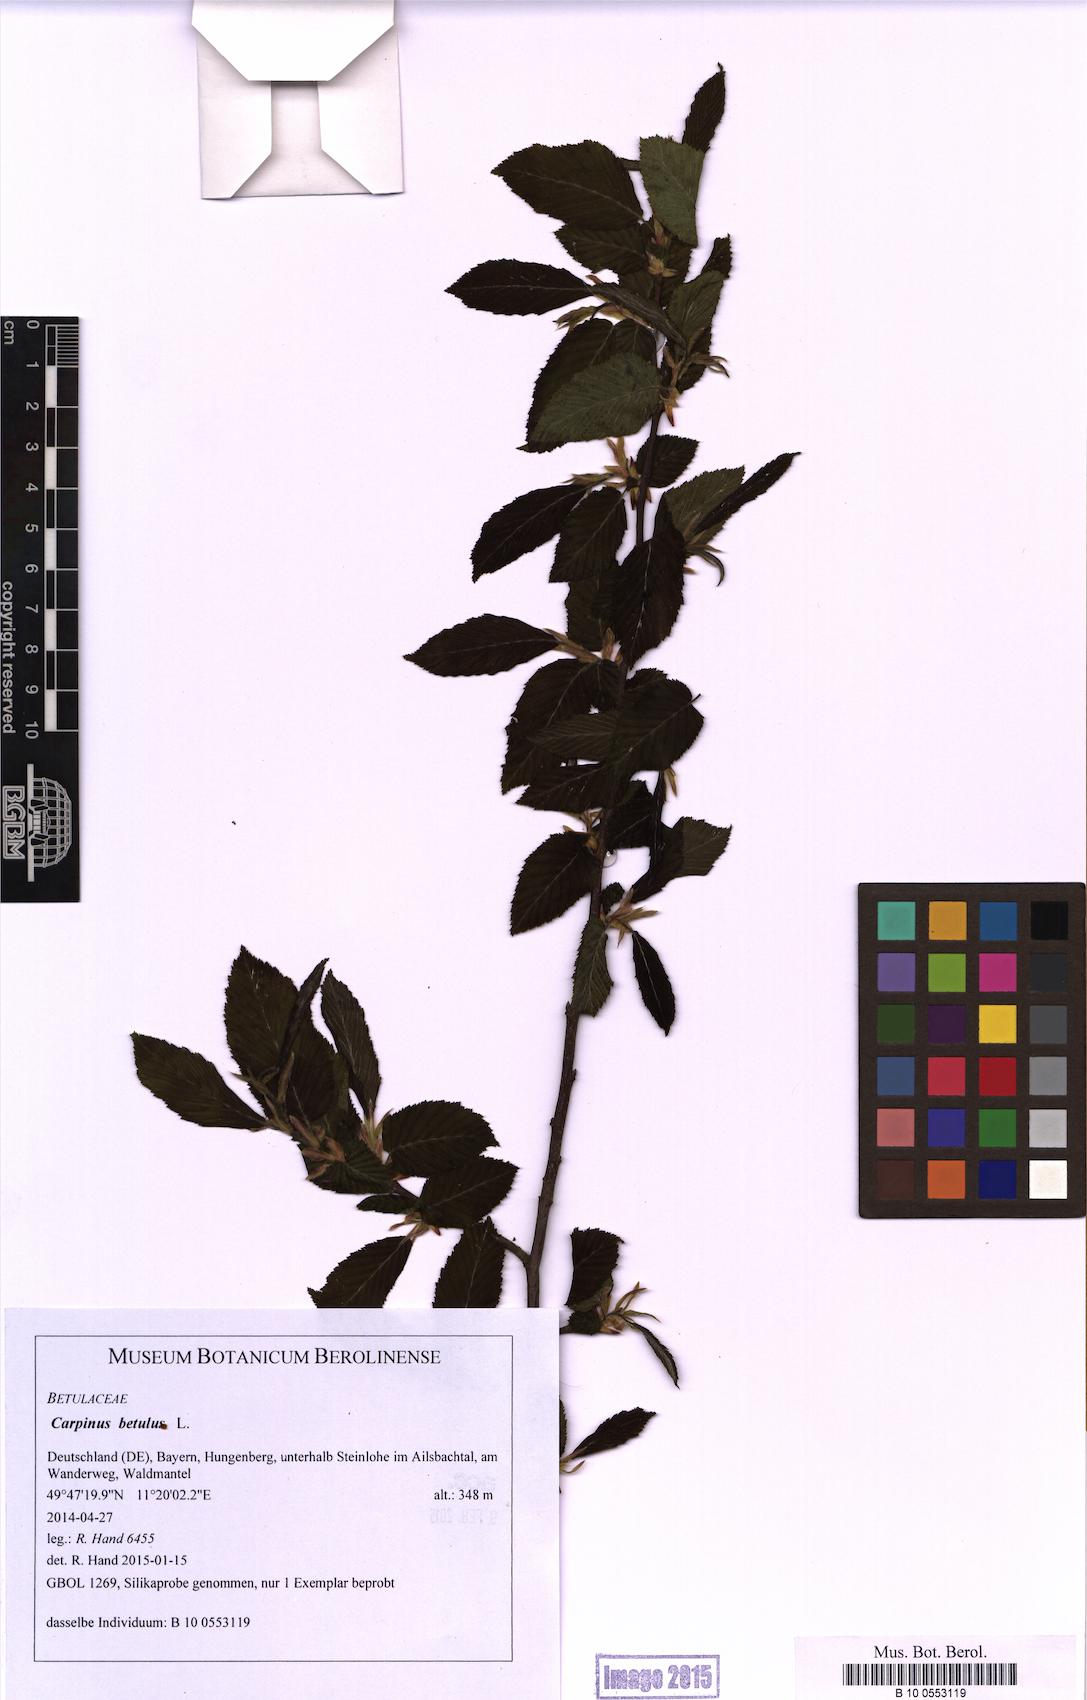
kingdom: Plantae
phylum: Tracheophyta
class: Magnoliopsida
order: Fagales
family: Betulaceae
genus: Carpinus
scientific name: Carpinus betulus
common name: Hornbeam
